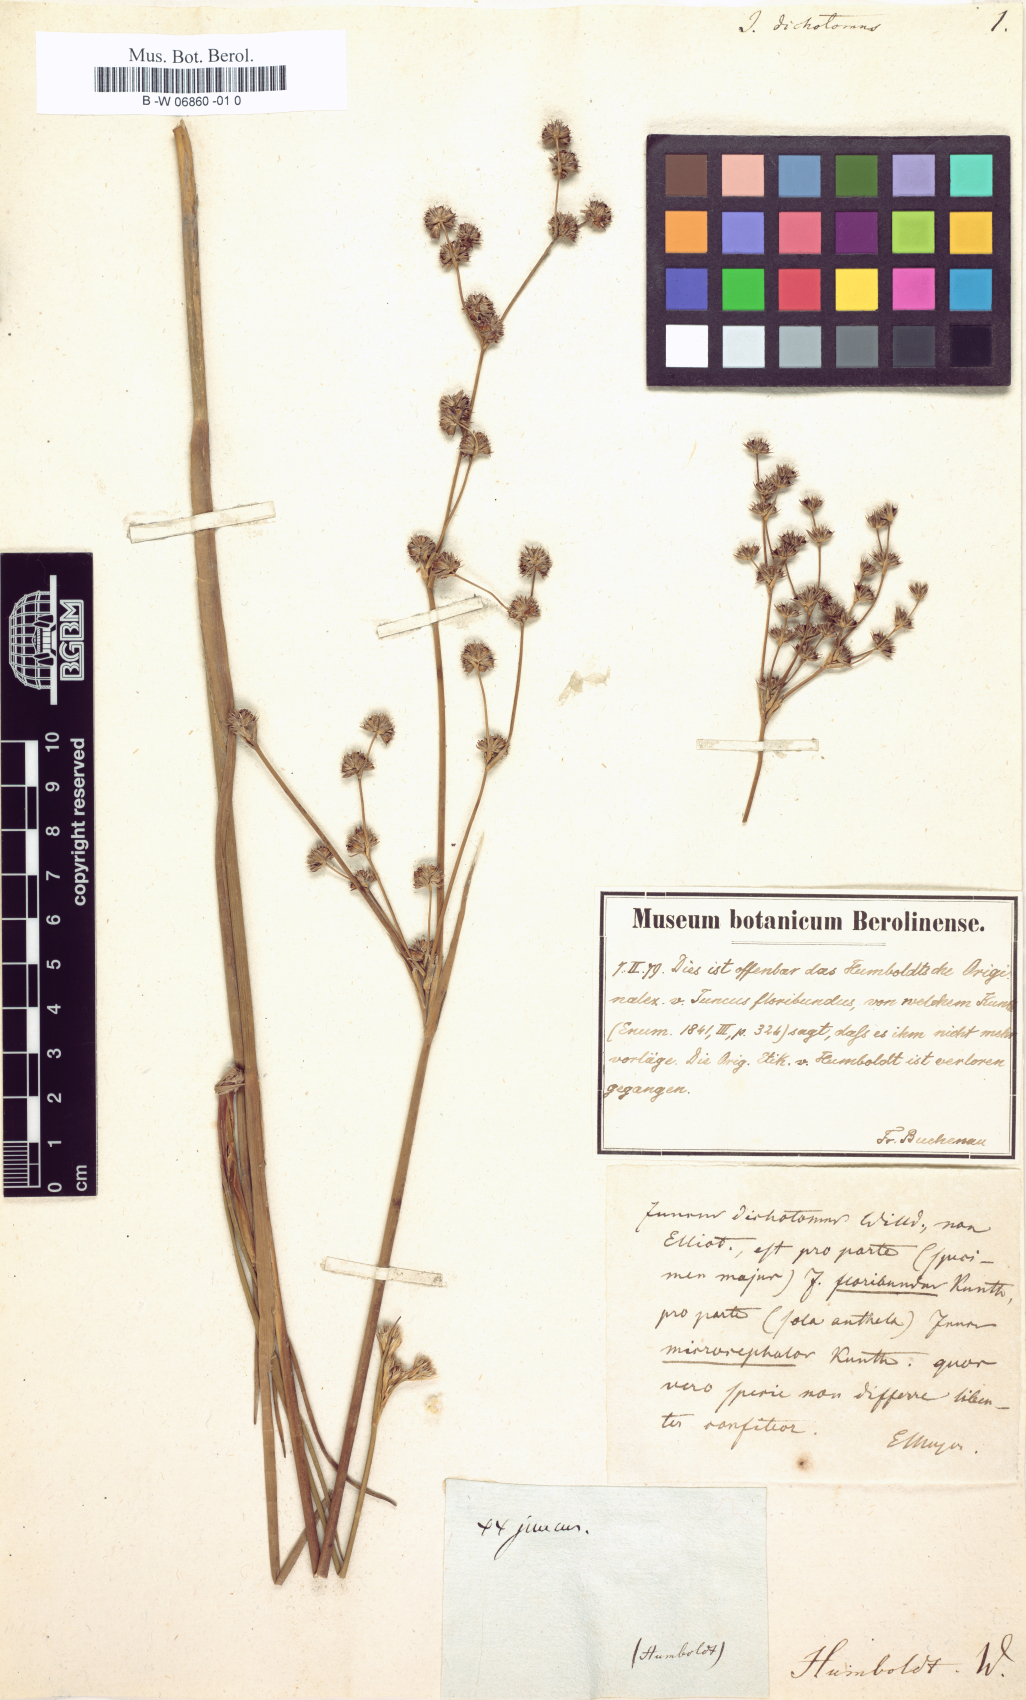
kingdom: Plantae
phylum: Tracheophyta
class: Liliopsida
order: Poales
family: Juncaceae
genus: Juncus
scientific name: Juncus dichotomus
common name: Forked rush
